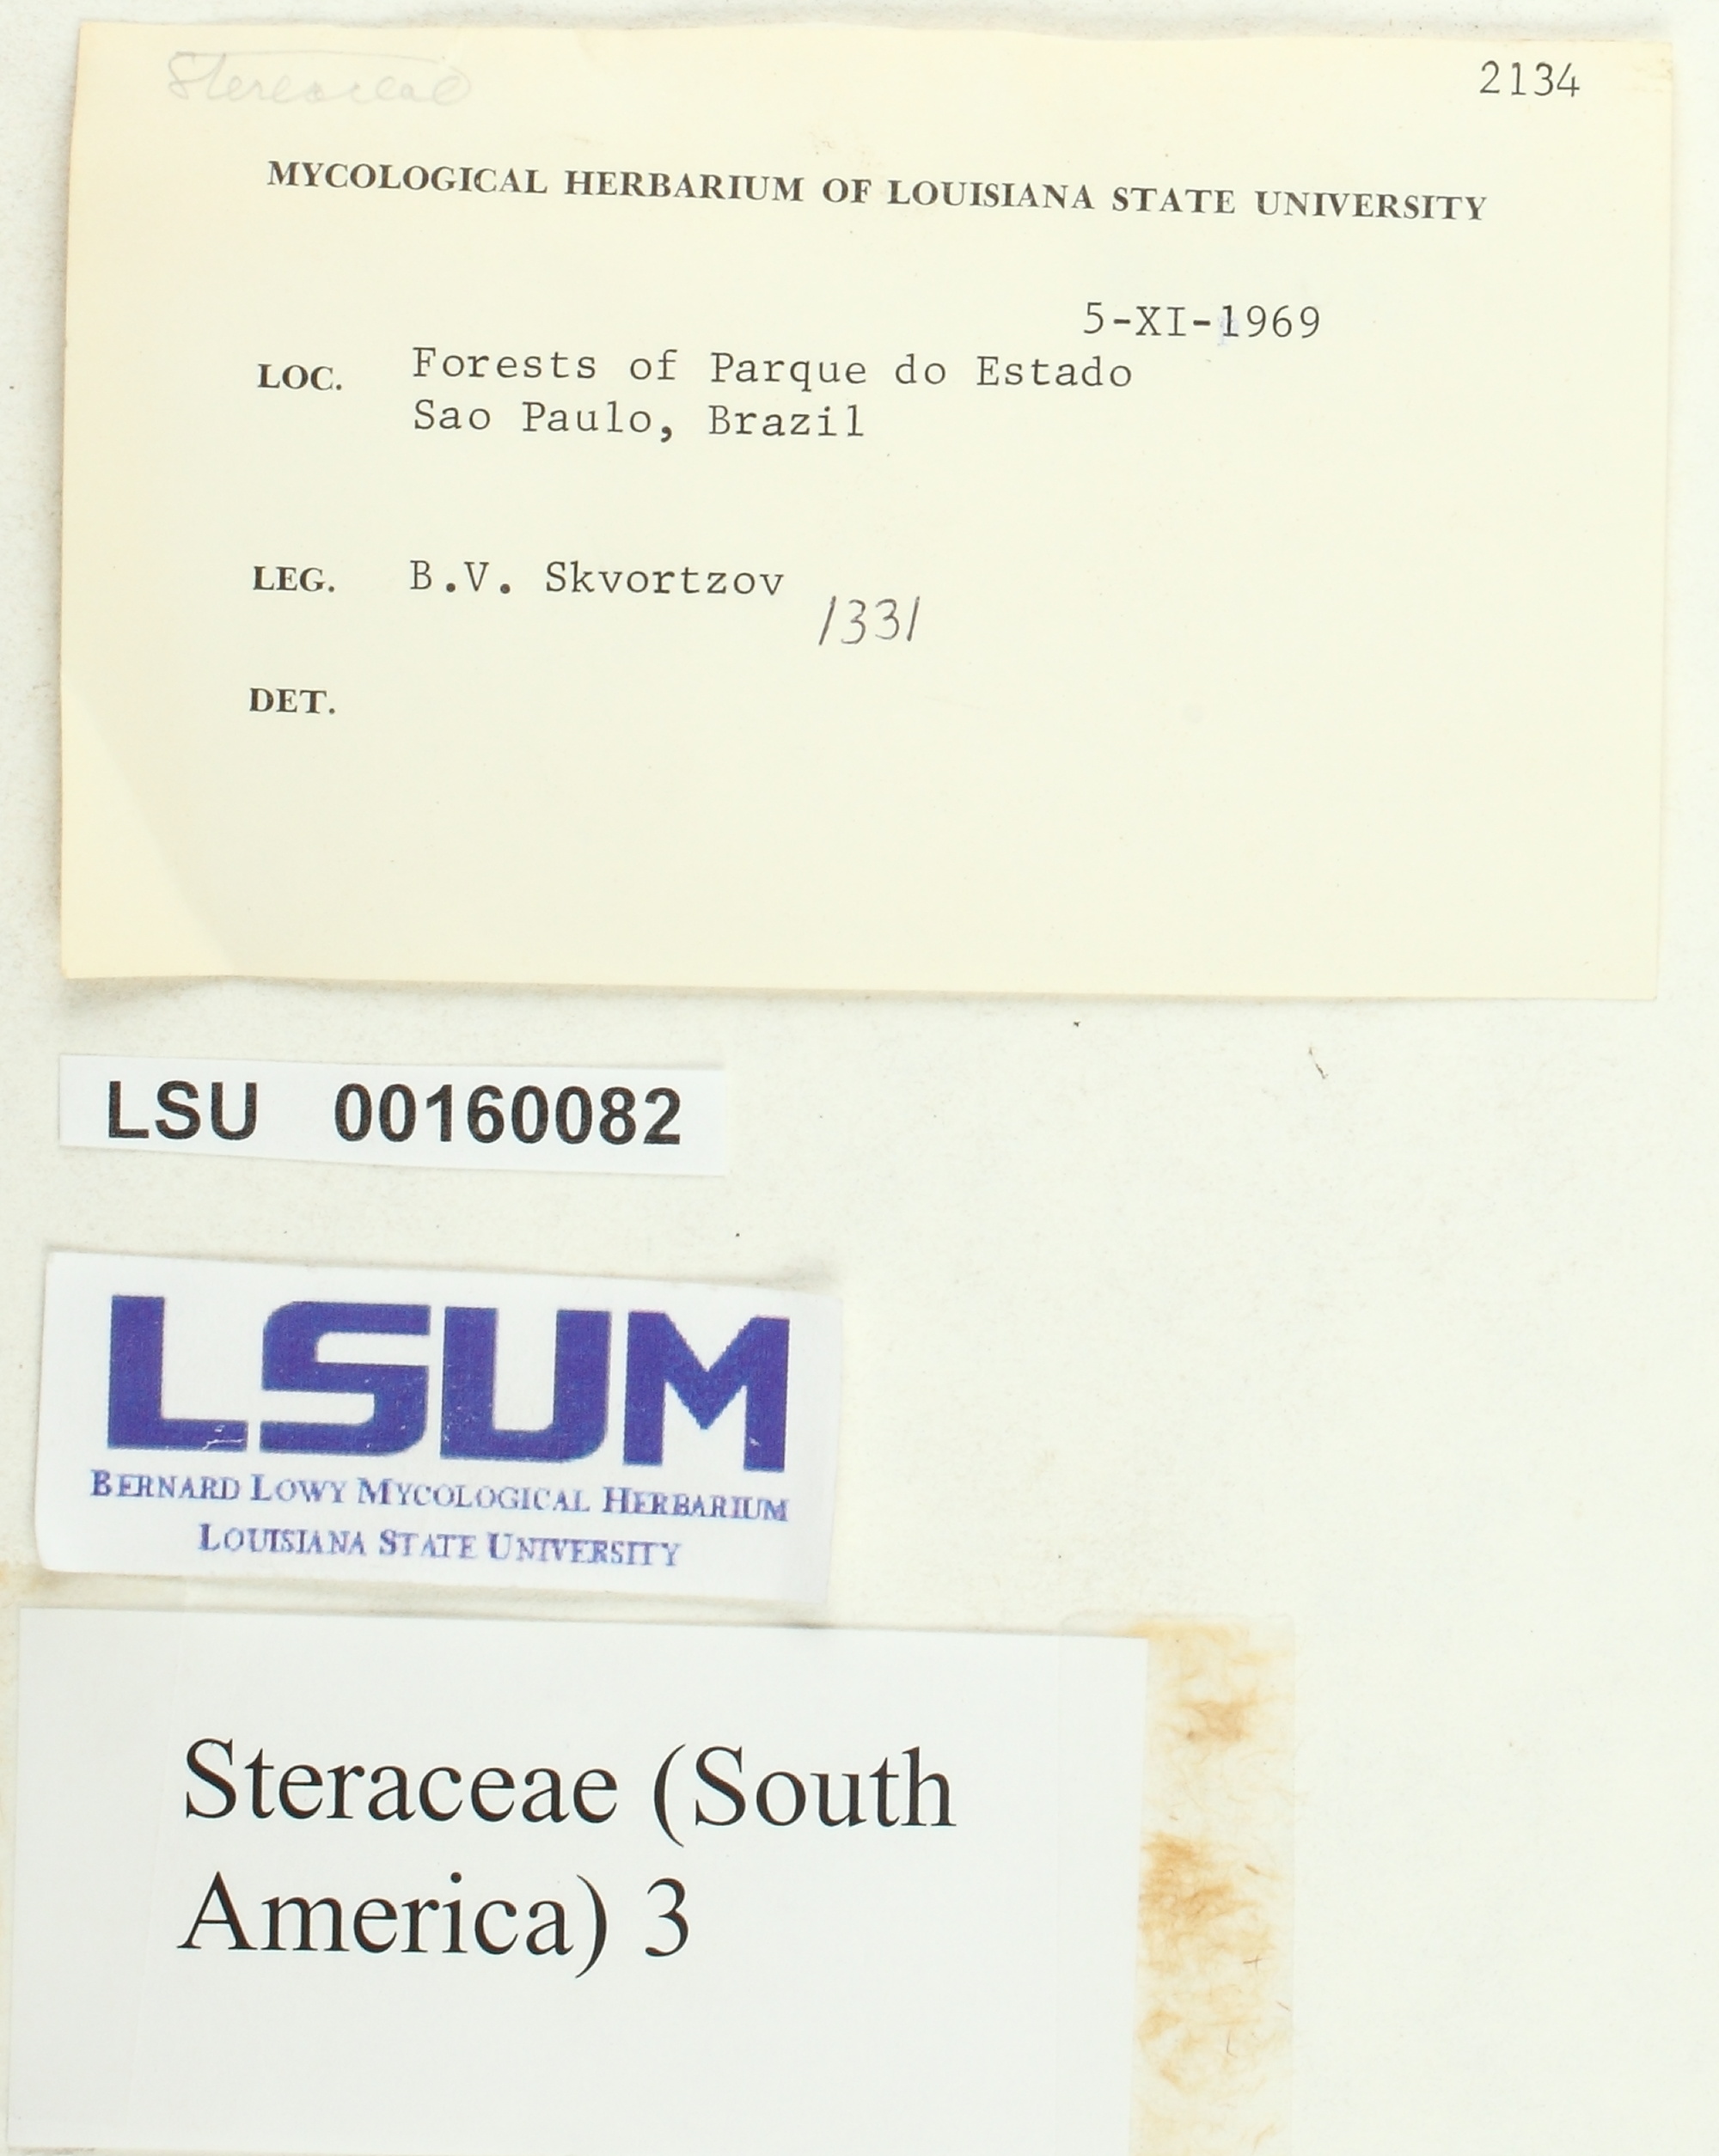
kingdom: Fungi
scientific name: Fungi
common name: Fungi
